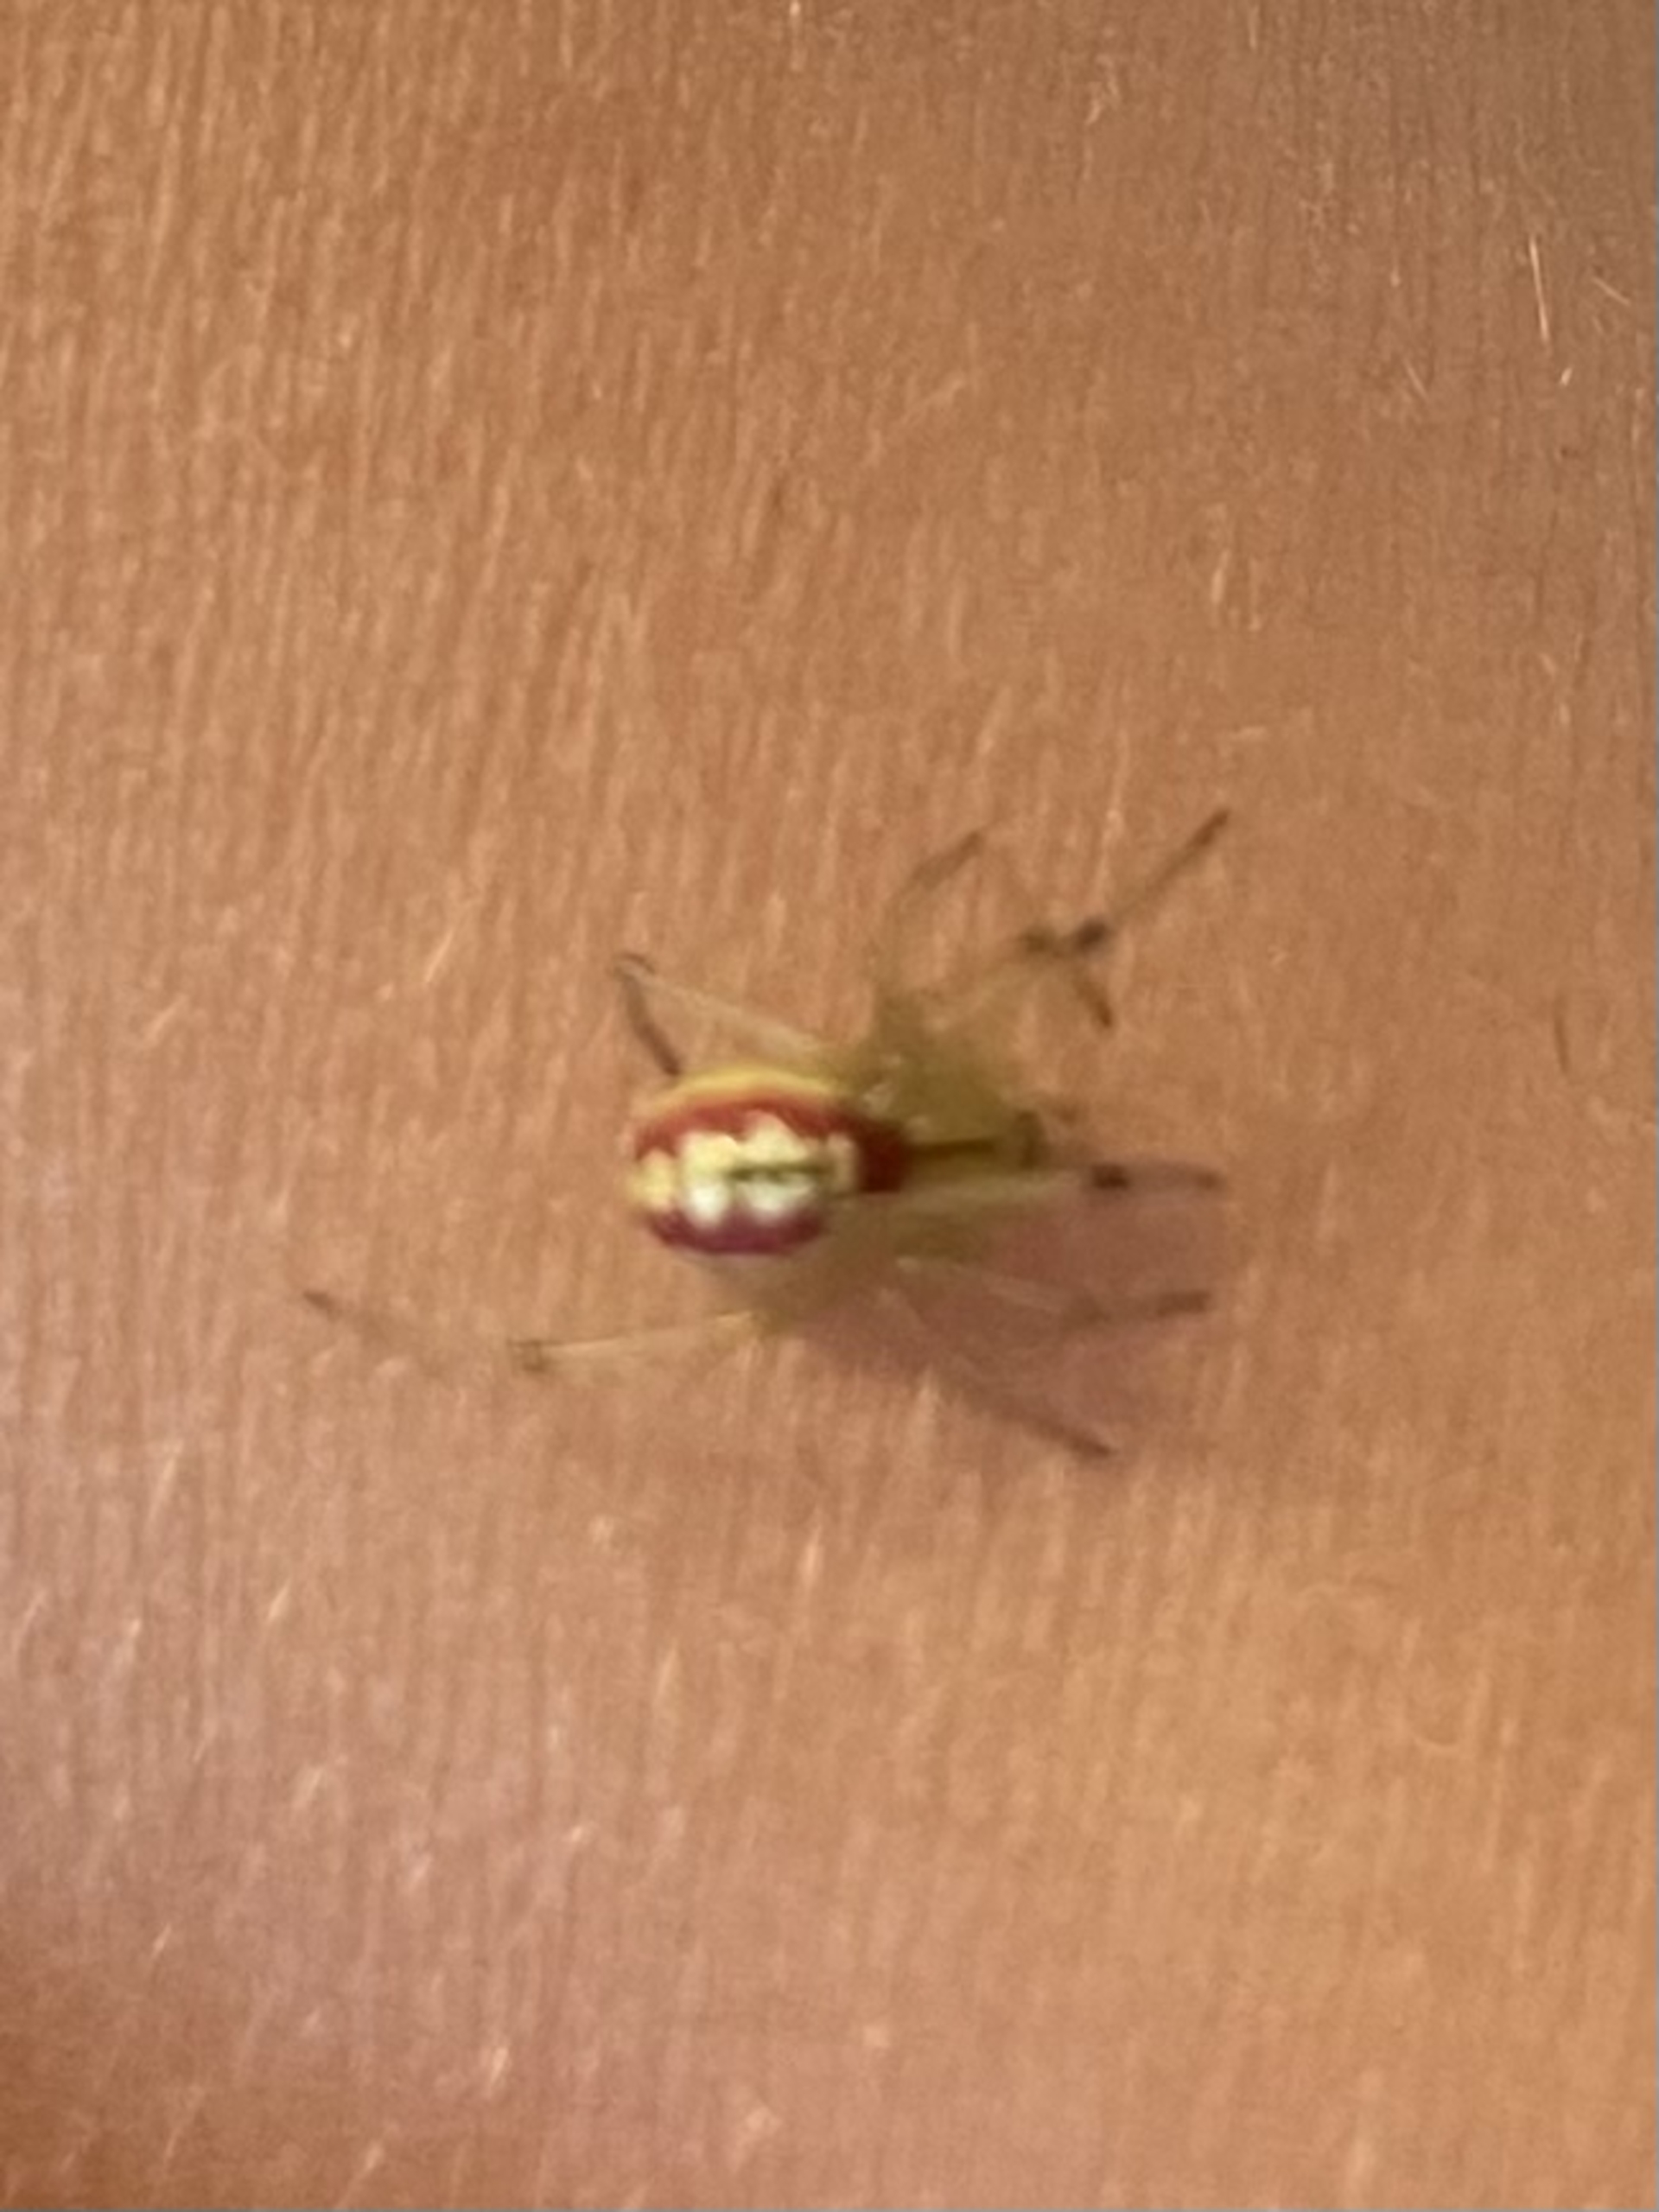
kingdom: Animalia
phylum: Arthropoda
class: Arachnida
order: Araneae
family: Theridiidae
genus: Enoplognatha
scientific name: Enoplognatha
